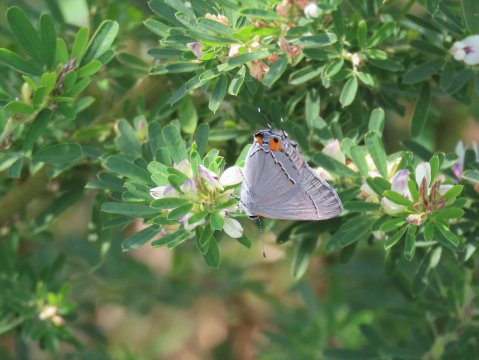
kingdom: Animalia
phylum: Arthropoda
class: Insecta
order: Lepidoptera
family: Lycaenidae
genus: Strymon
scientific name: Strymon melinus
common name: Gray Hairstreak
